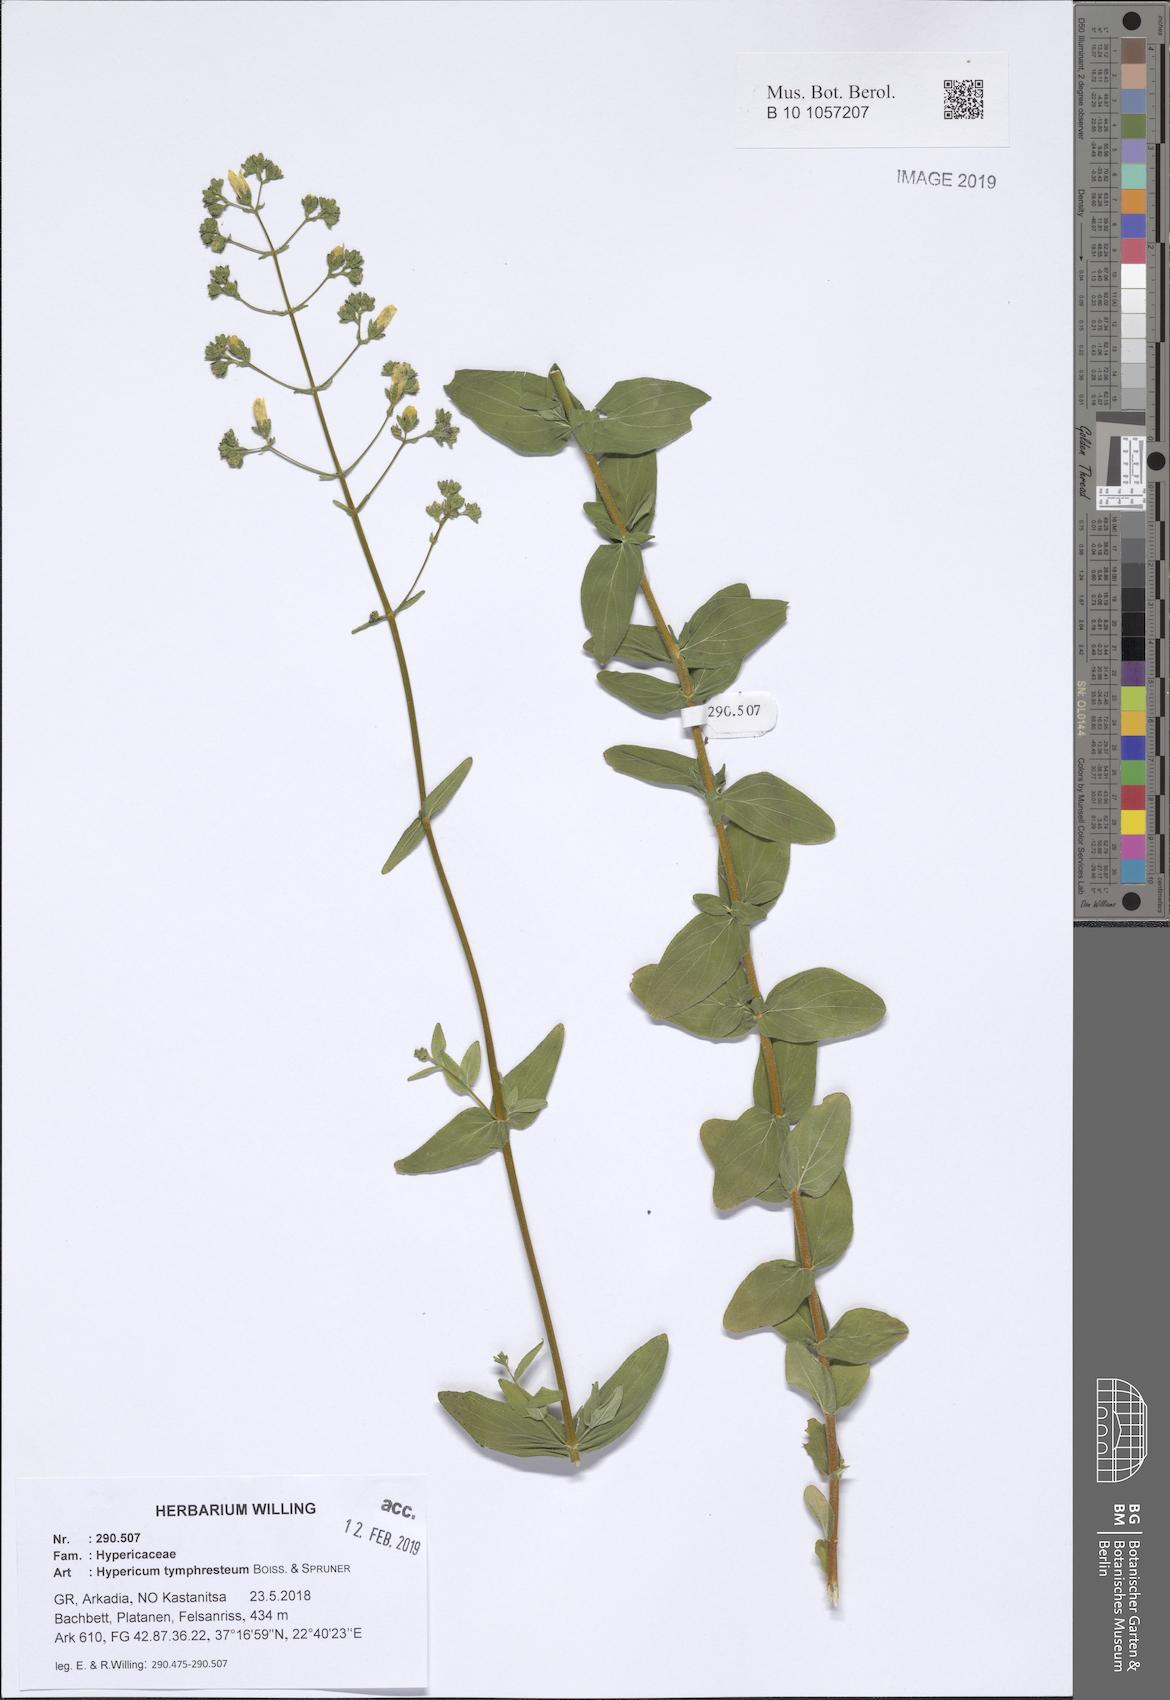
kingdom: Plantae
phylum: Tracheophyta
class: Magnoliopsida
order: Malpighiales
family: Hypericaceae
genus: Hypericum
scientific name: Hypericum atomarium
